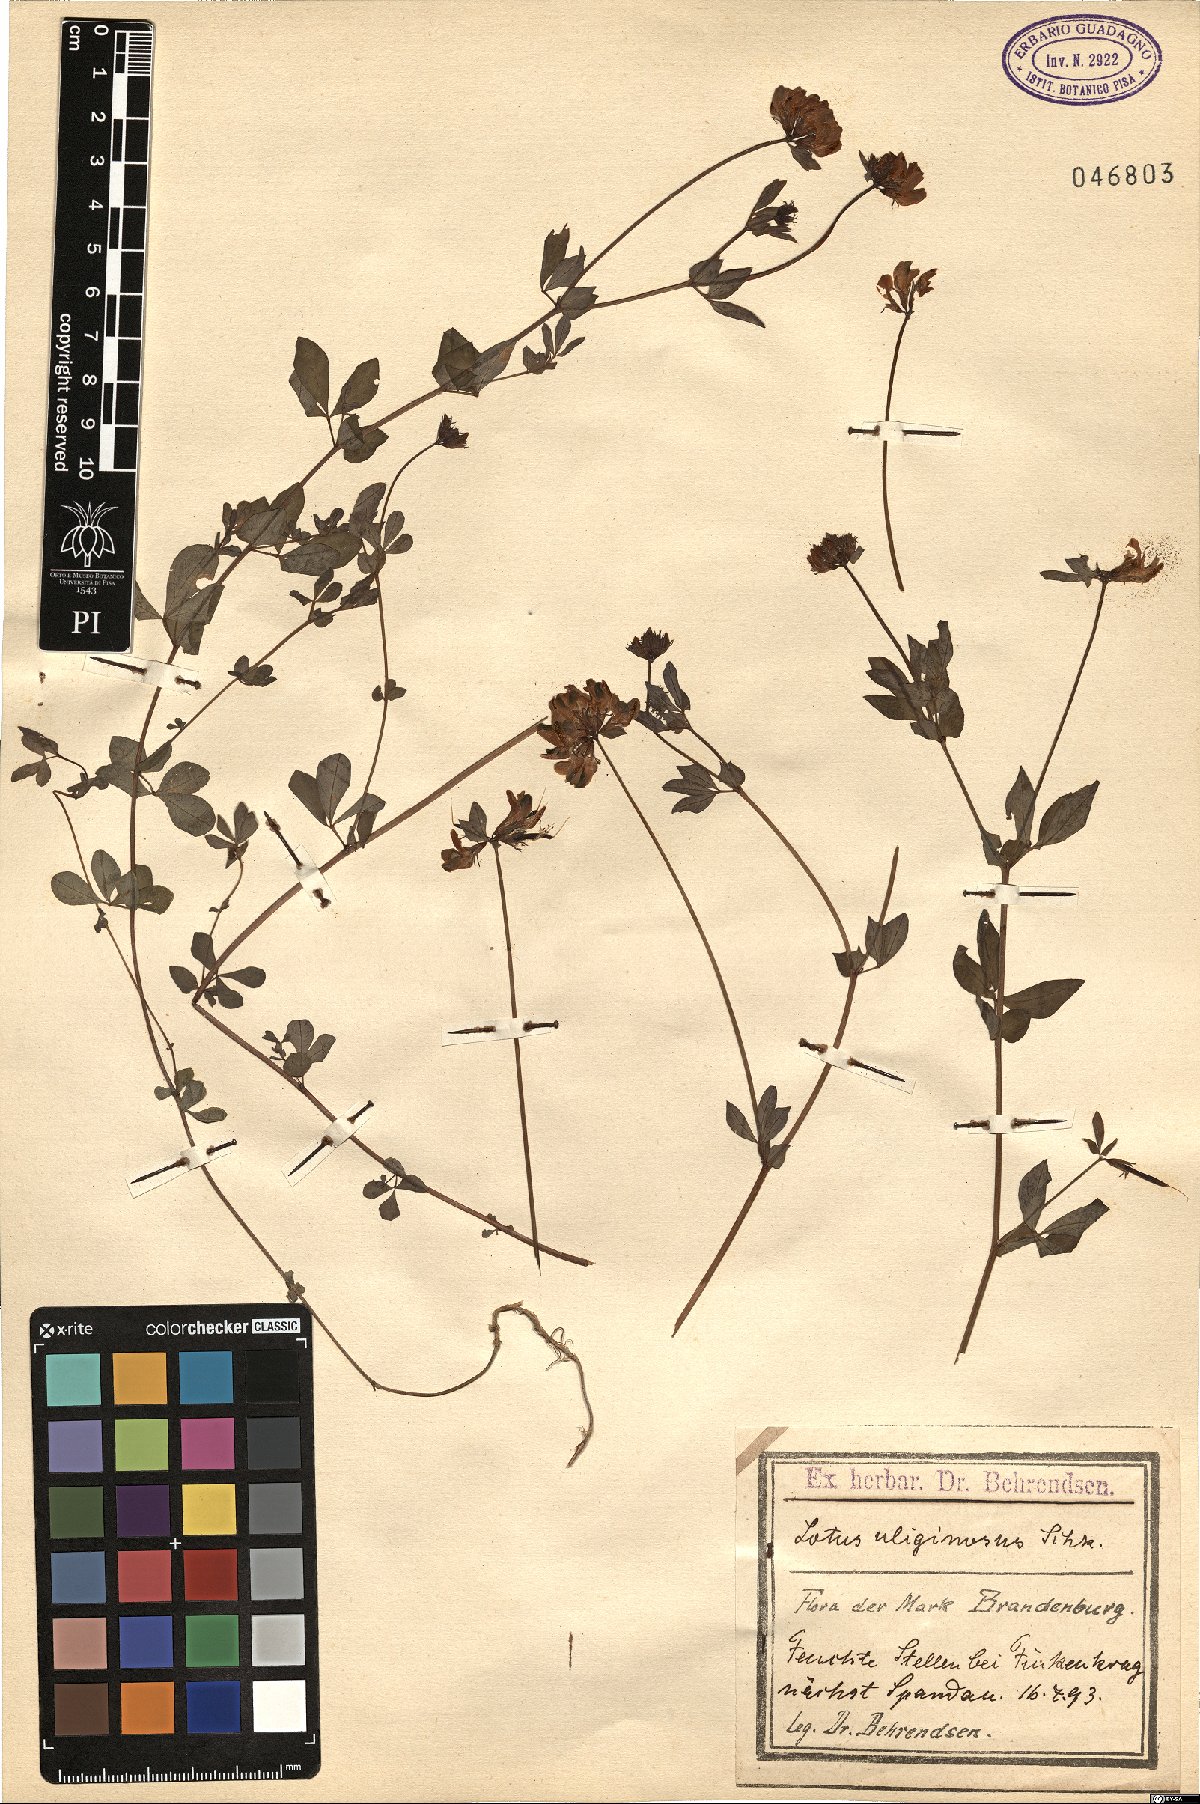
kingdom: Plantae
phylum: Tracheophyta
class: Magnoliopsida
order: Fabales
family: Fabaceae
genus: Lotus
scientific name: Lotus pedunculatus
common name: Greater birdsfoot-trefoil
